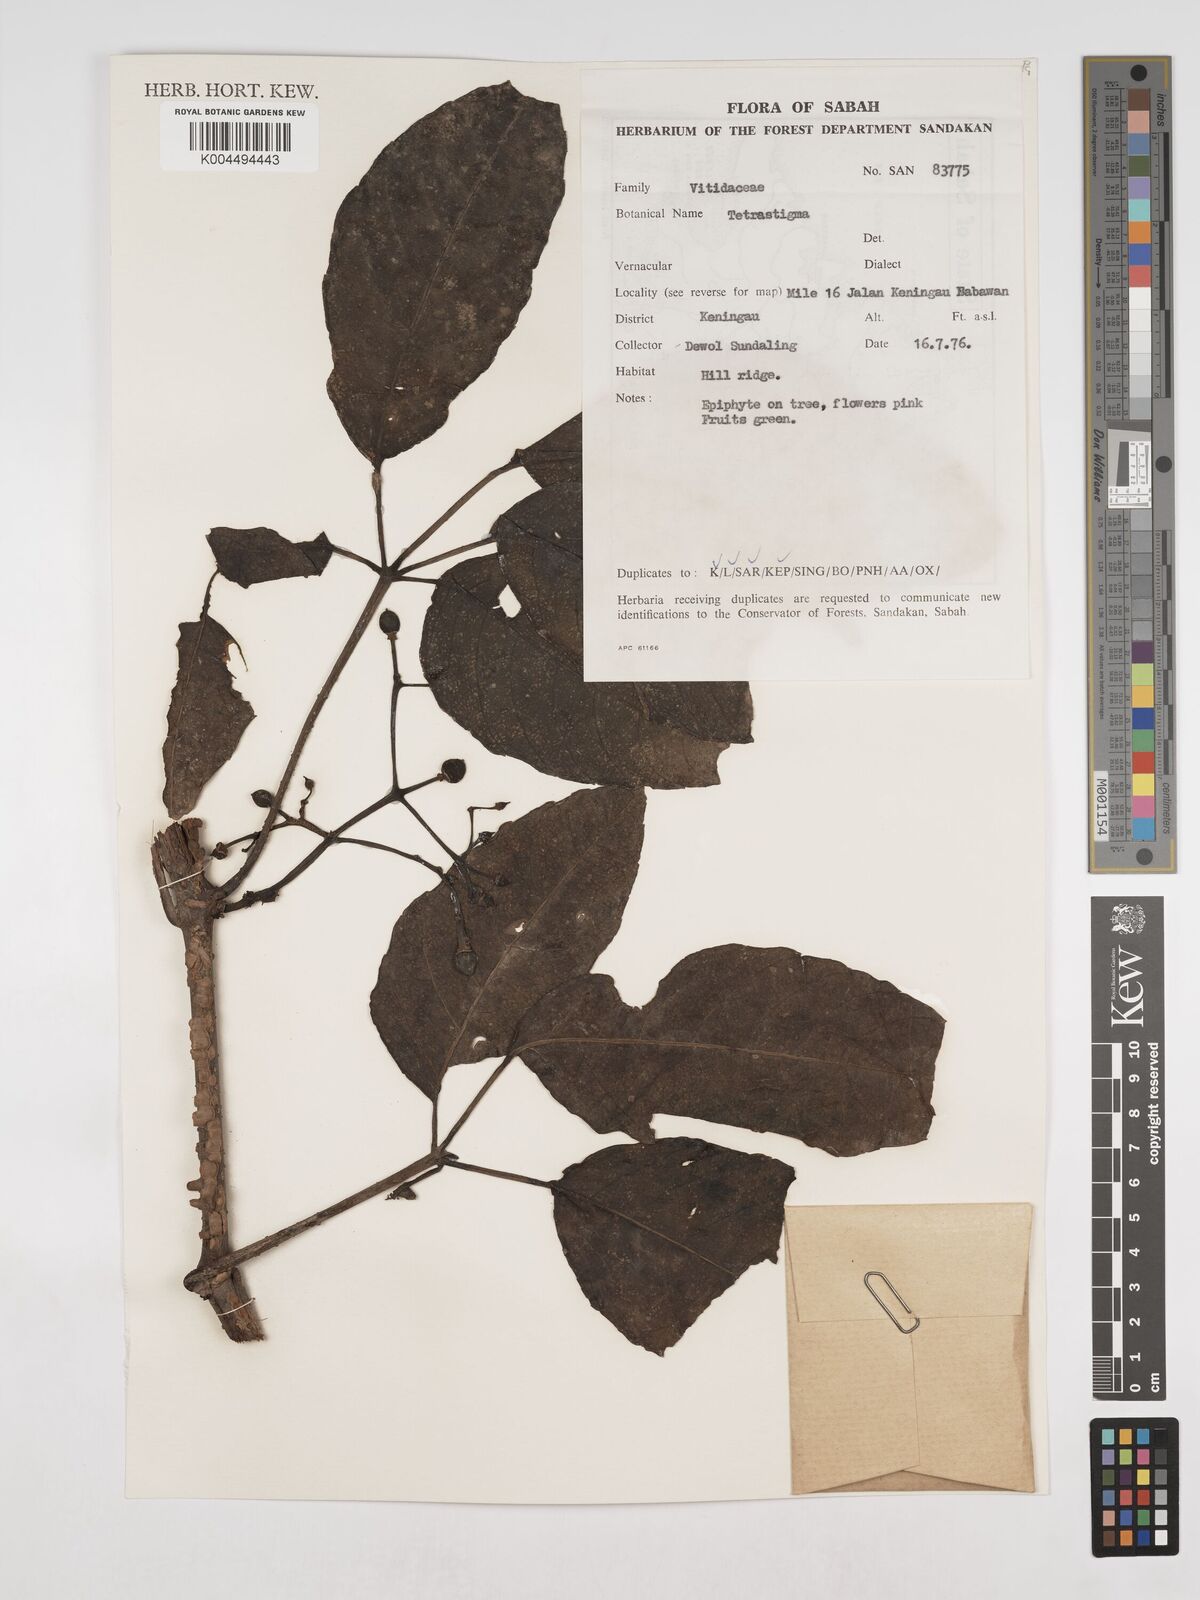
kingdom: Plantae
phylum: Tracheophyta
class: Magnoliopsida
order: Vitales
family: Vitaceae
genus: Tetrastigma
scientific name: Tetrastigma
